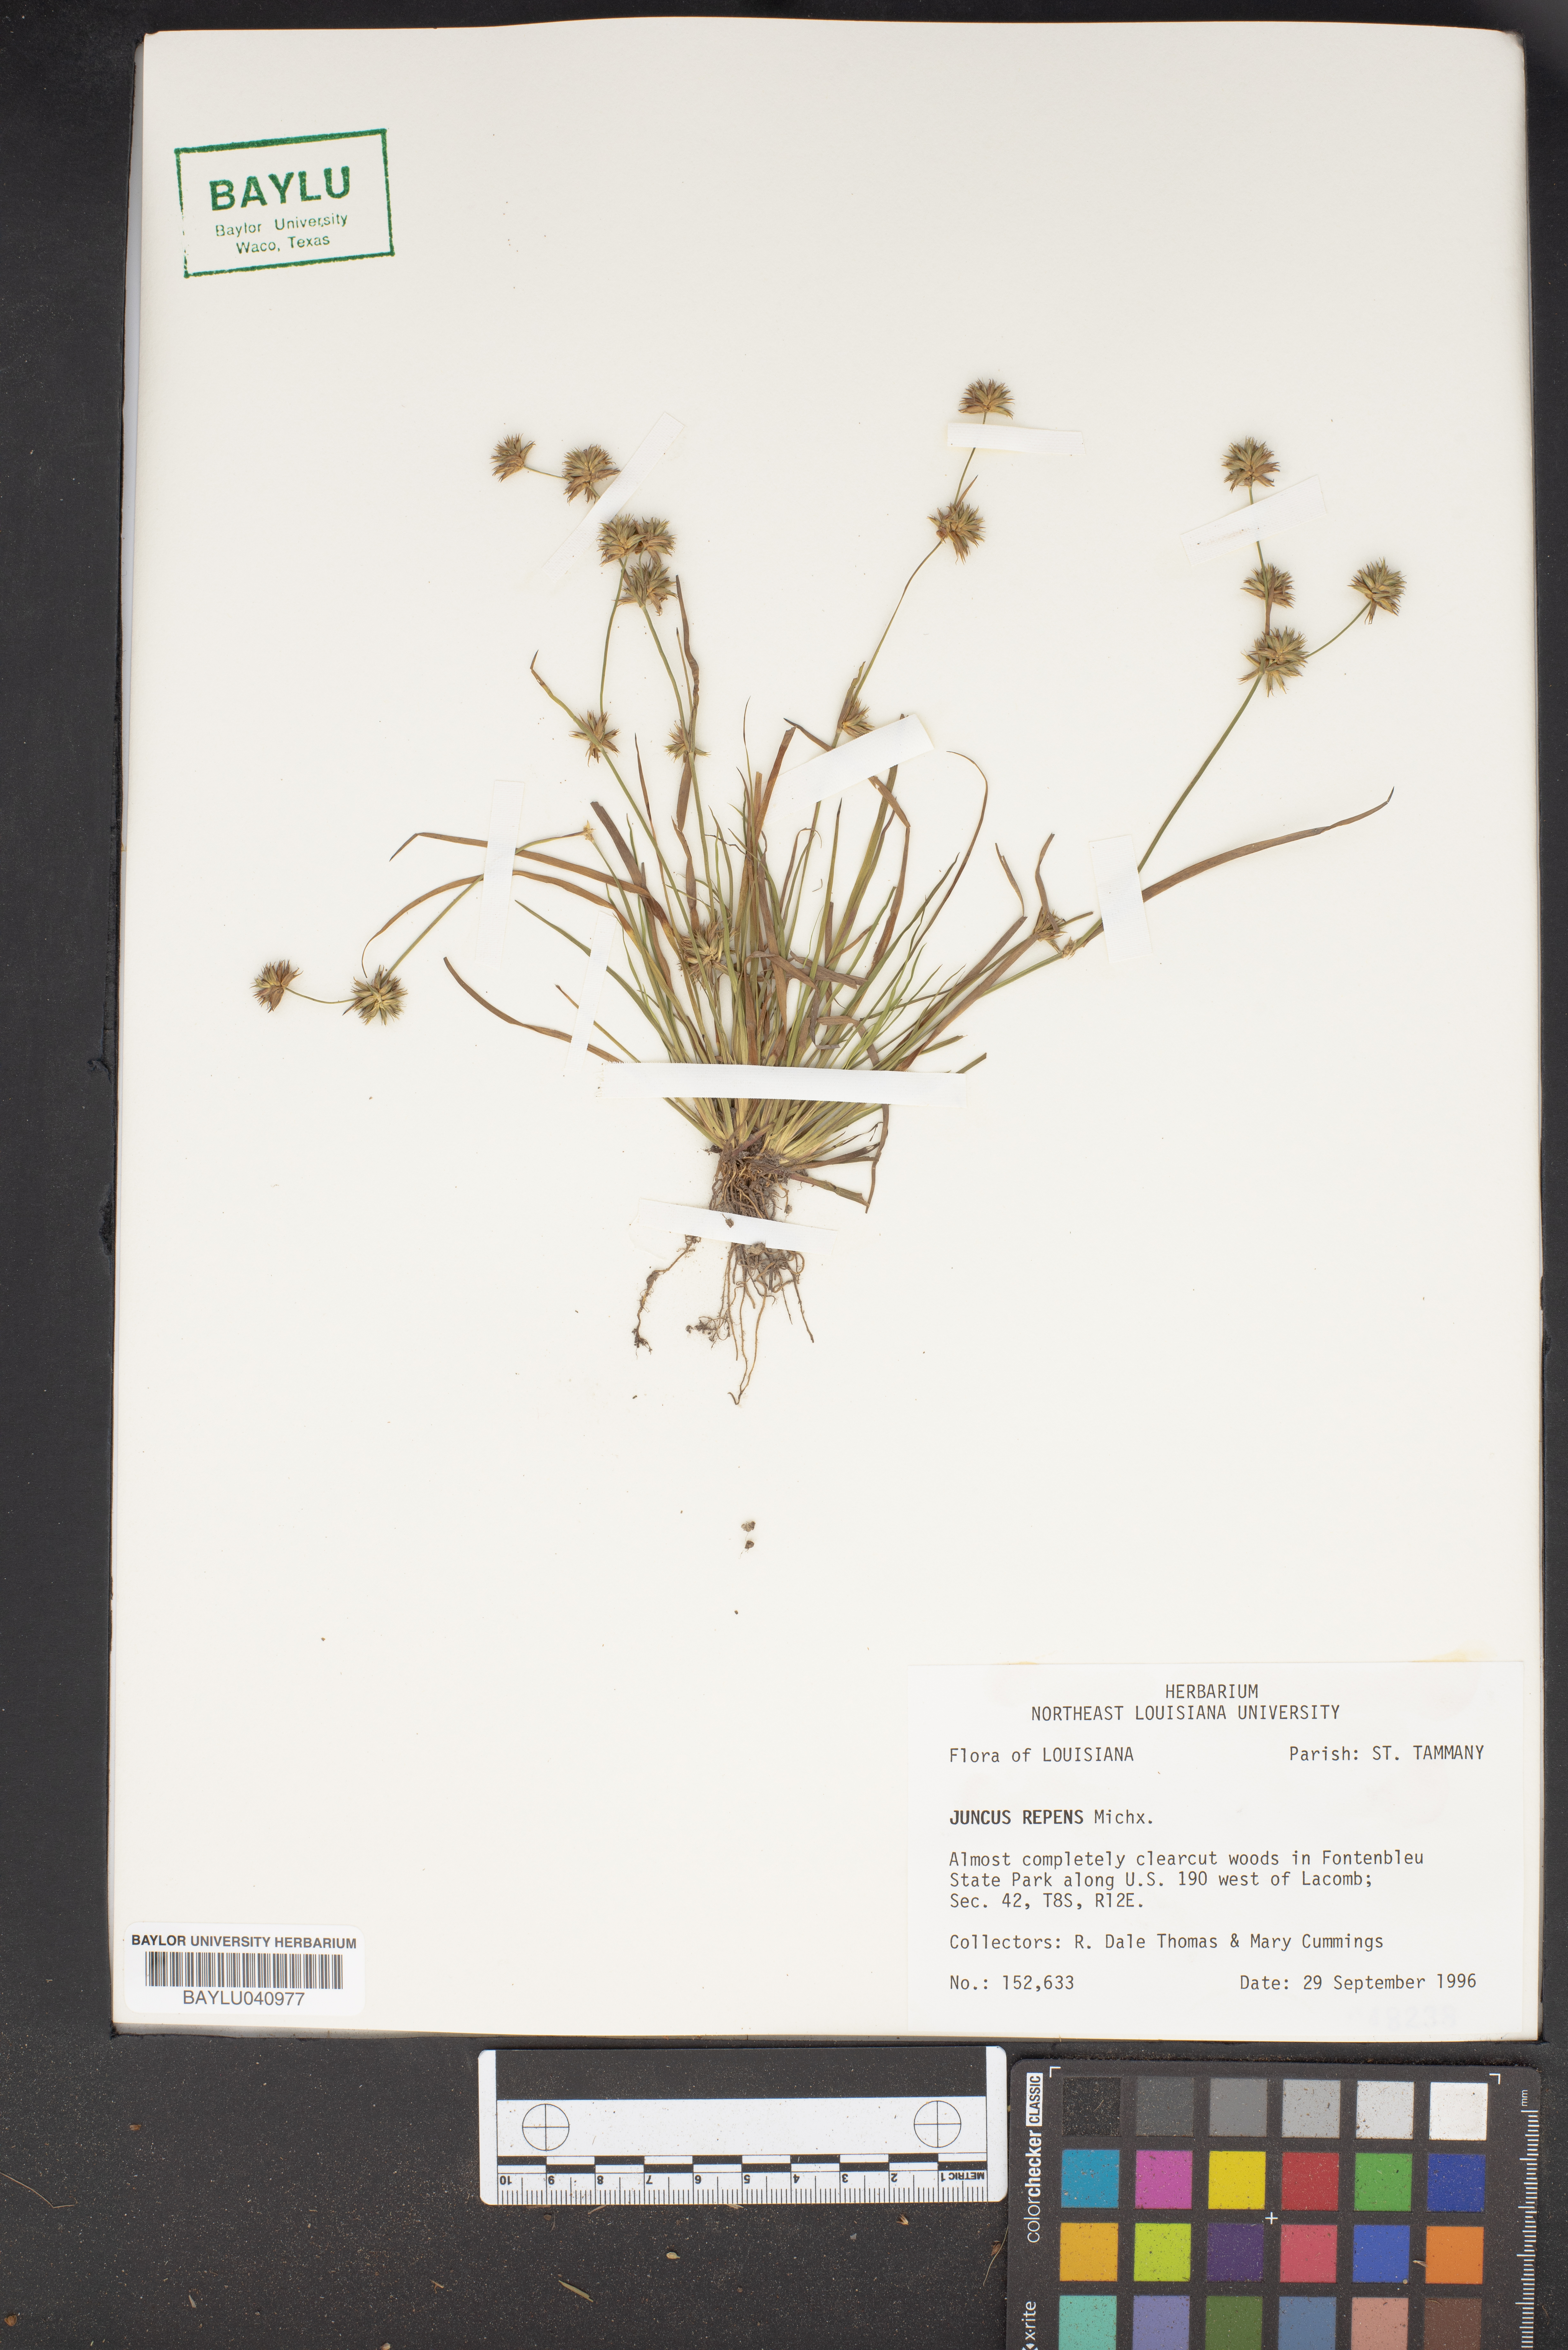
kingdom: Plantae
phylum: Tracheophyta
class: Liliopsida
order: Poales
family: Juncaceae
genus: Juncus
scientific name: Juncus repens
